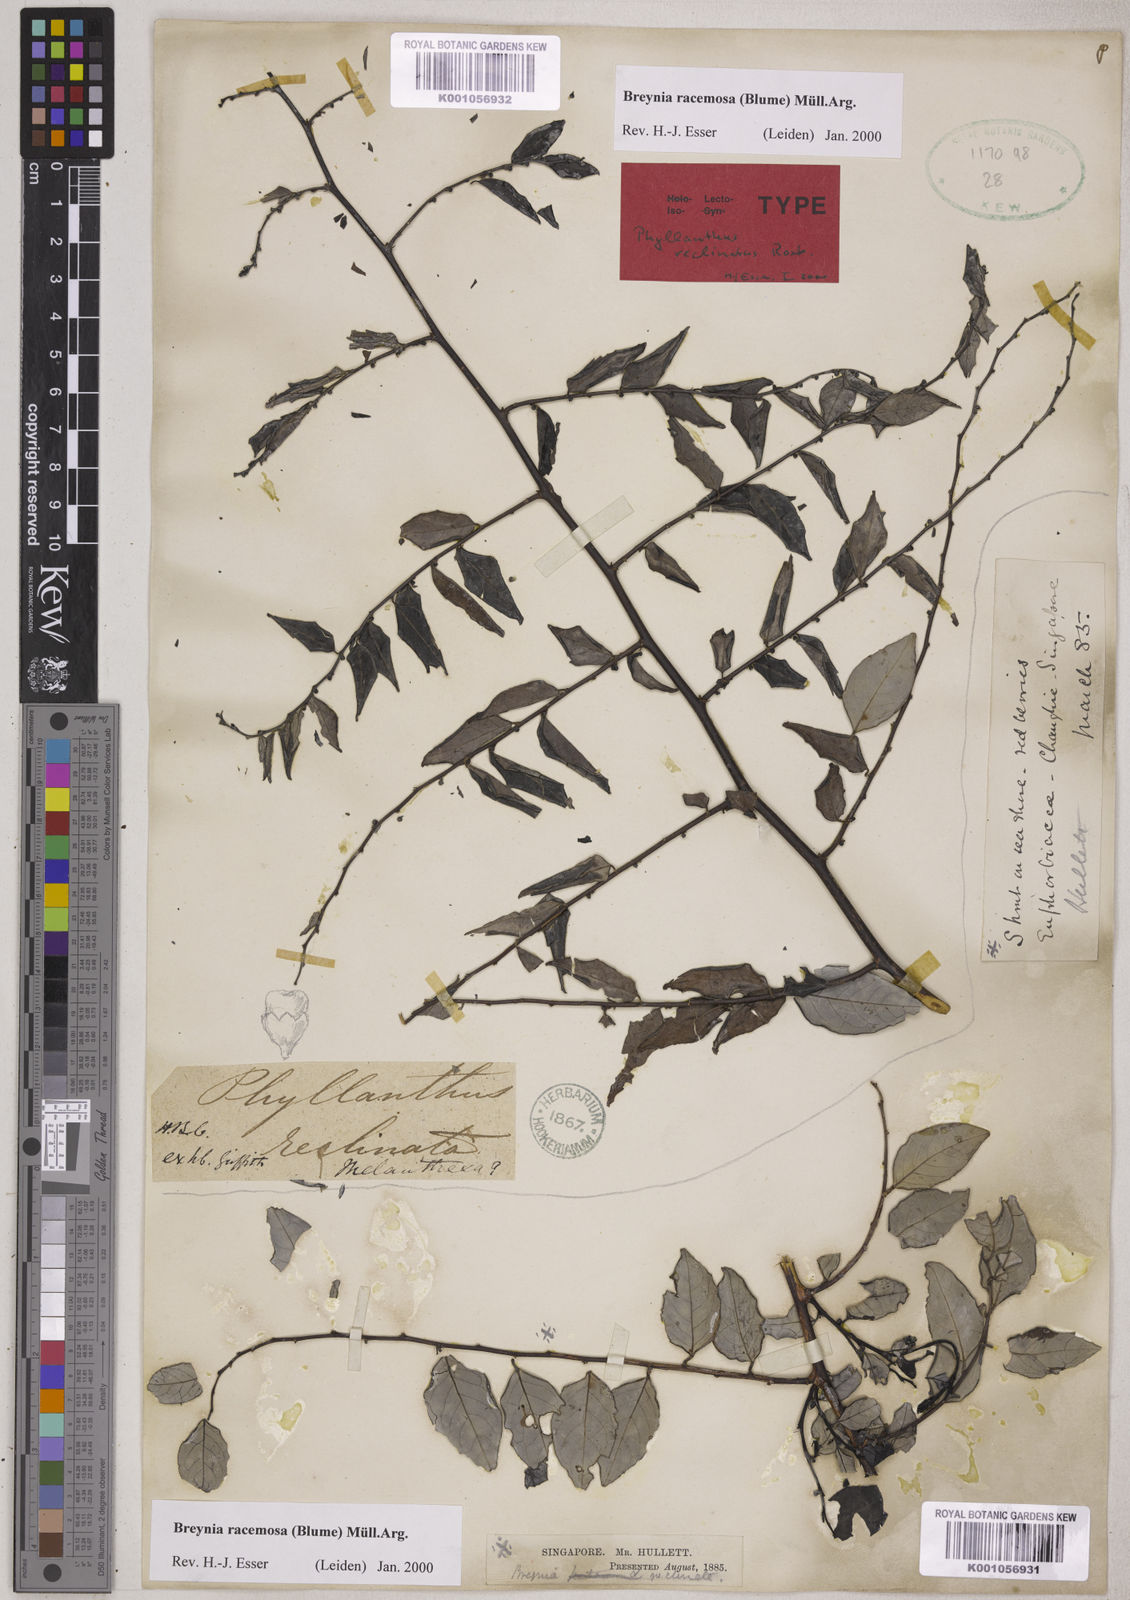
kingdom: Plantae
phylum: Tracheophyta
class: Magnoliopsida
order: Malpighiales
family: Phyllanthaceae
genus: Breynia
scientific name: Breynia
